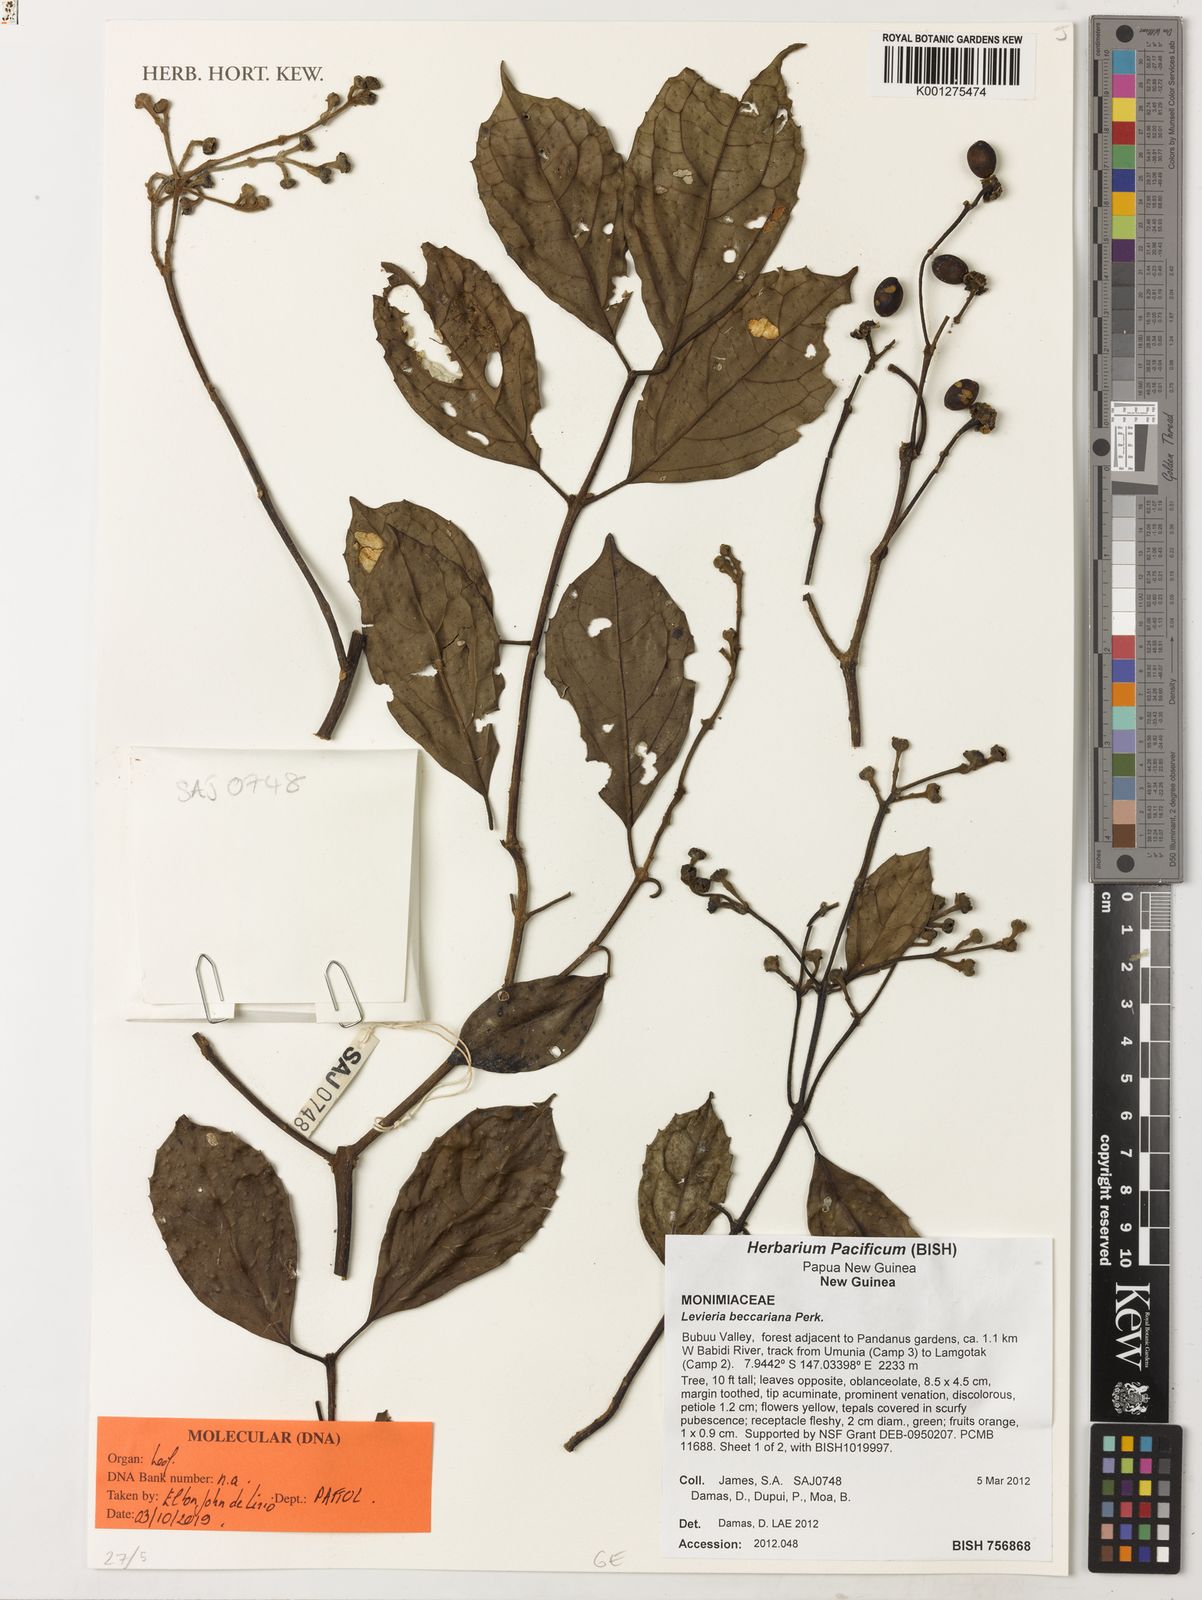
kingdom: Plantae
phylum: Tracheophyta
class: Magnoliopsida
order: Laurales
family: Monimiaceae
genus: Levieria
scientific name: Levieria beccariana
